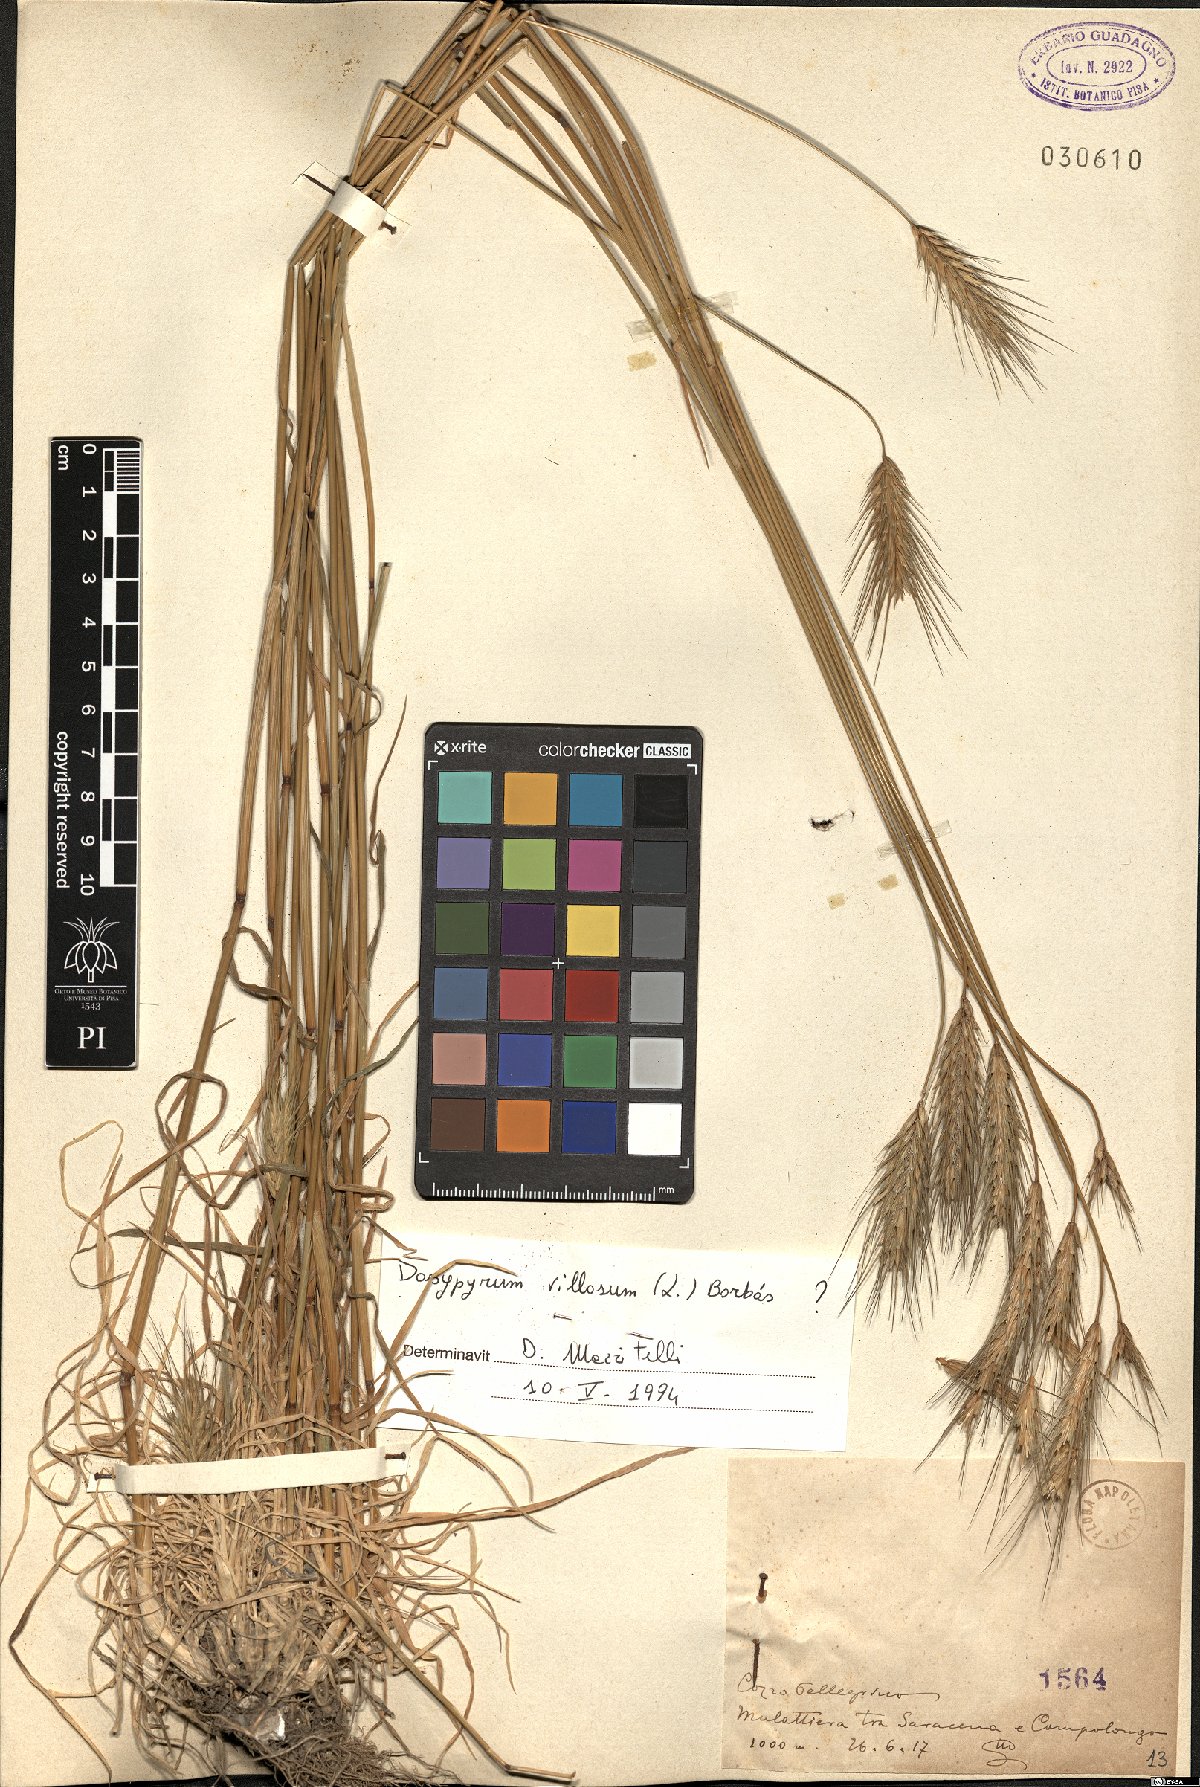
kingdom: Plantae
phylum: Tracheophyta
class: Liliopsida
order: Poales
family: Poaceae
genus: Dasypyrum
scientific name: Dasypyrum villosum
